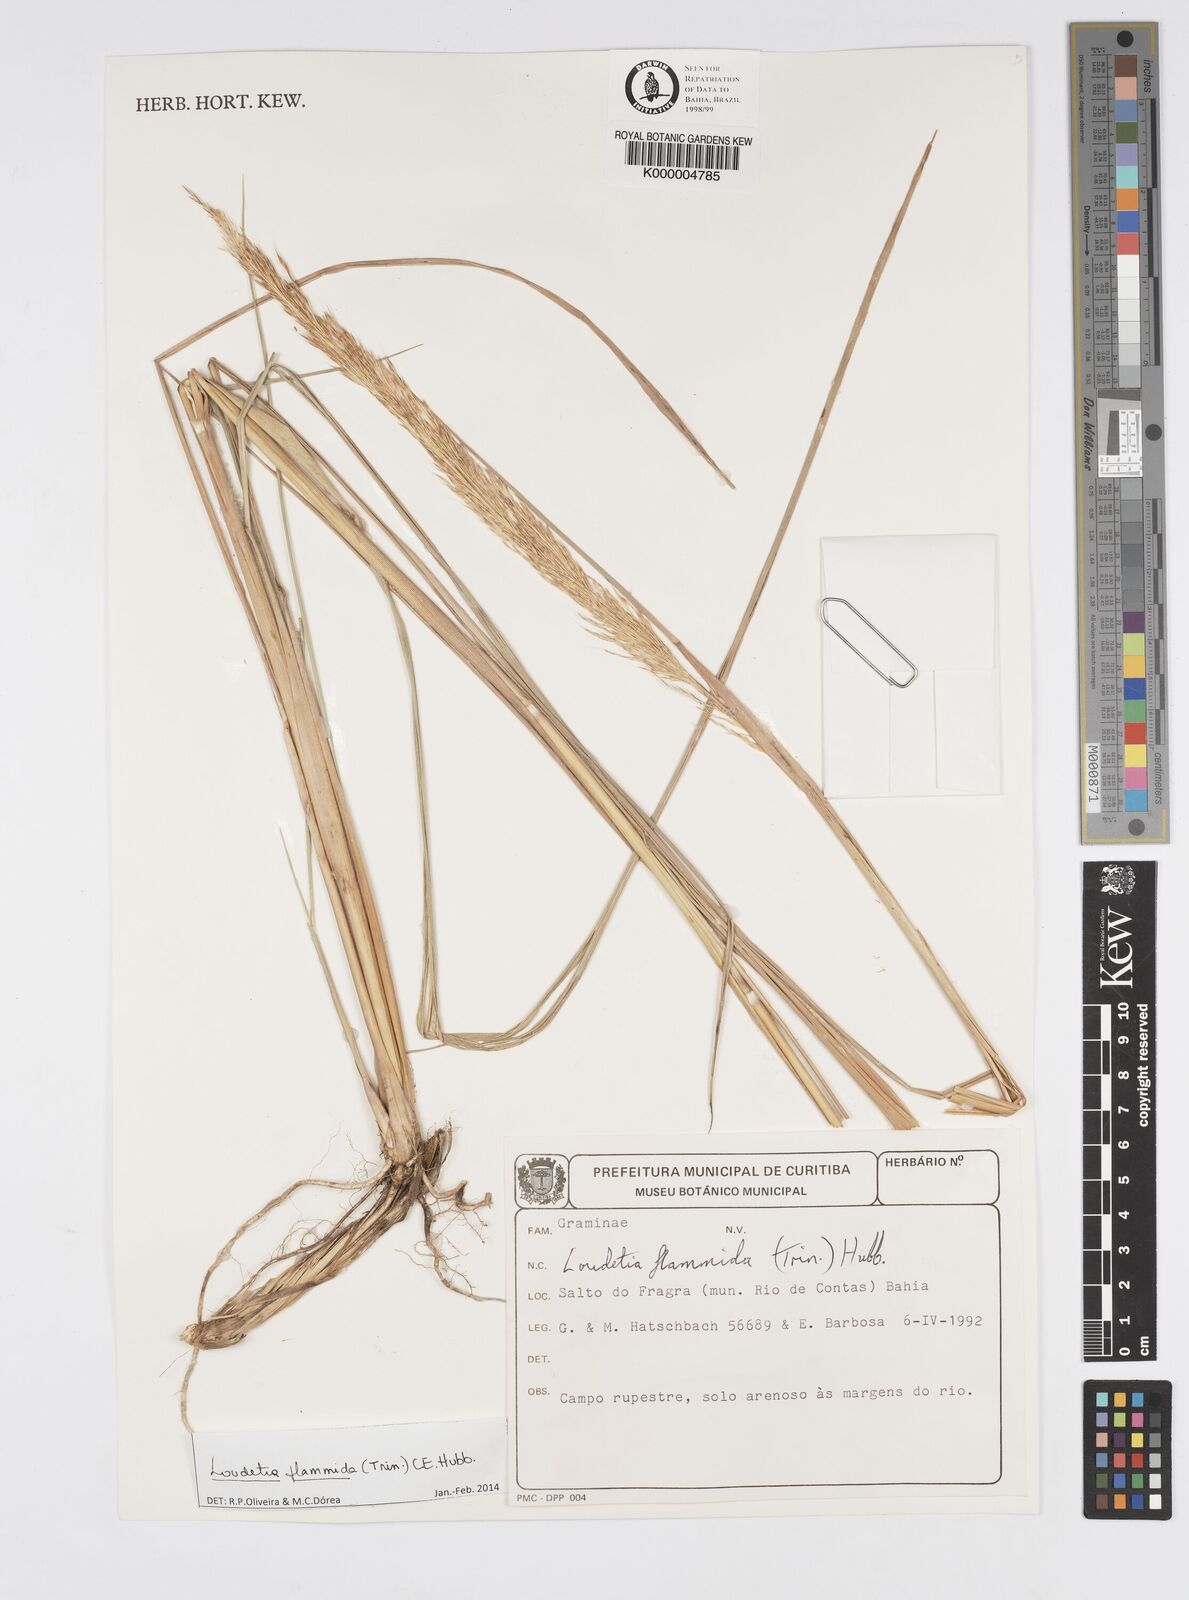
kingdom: Plantae
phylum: Tracheophyta
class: Liliopsida
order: Poales
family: Poaceae
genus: Loudetia
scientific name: Loudetia flammida
